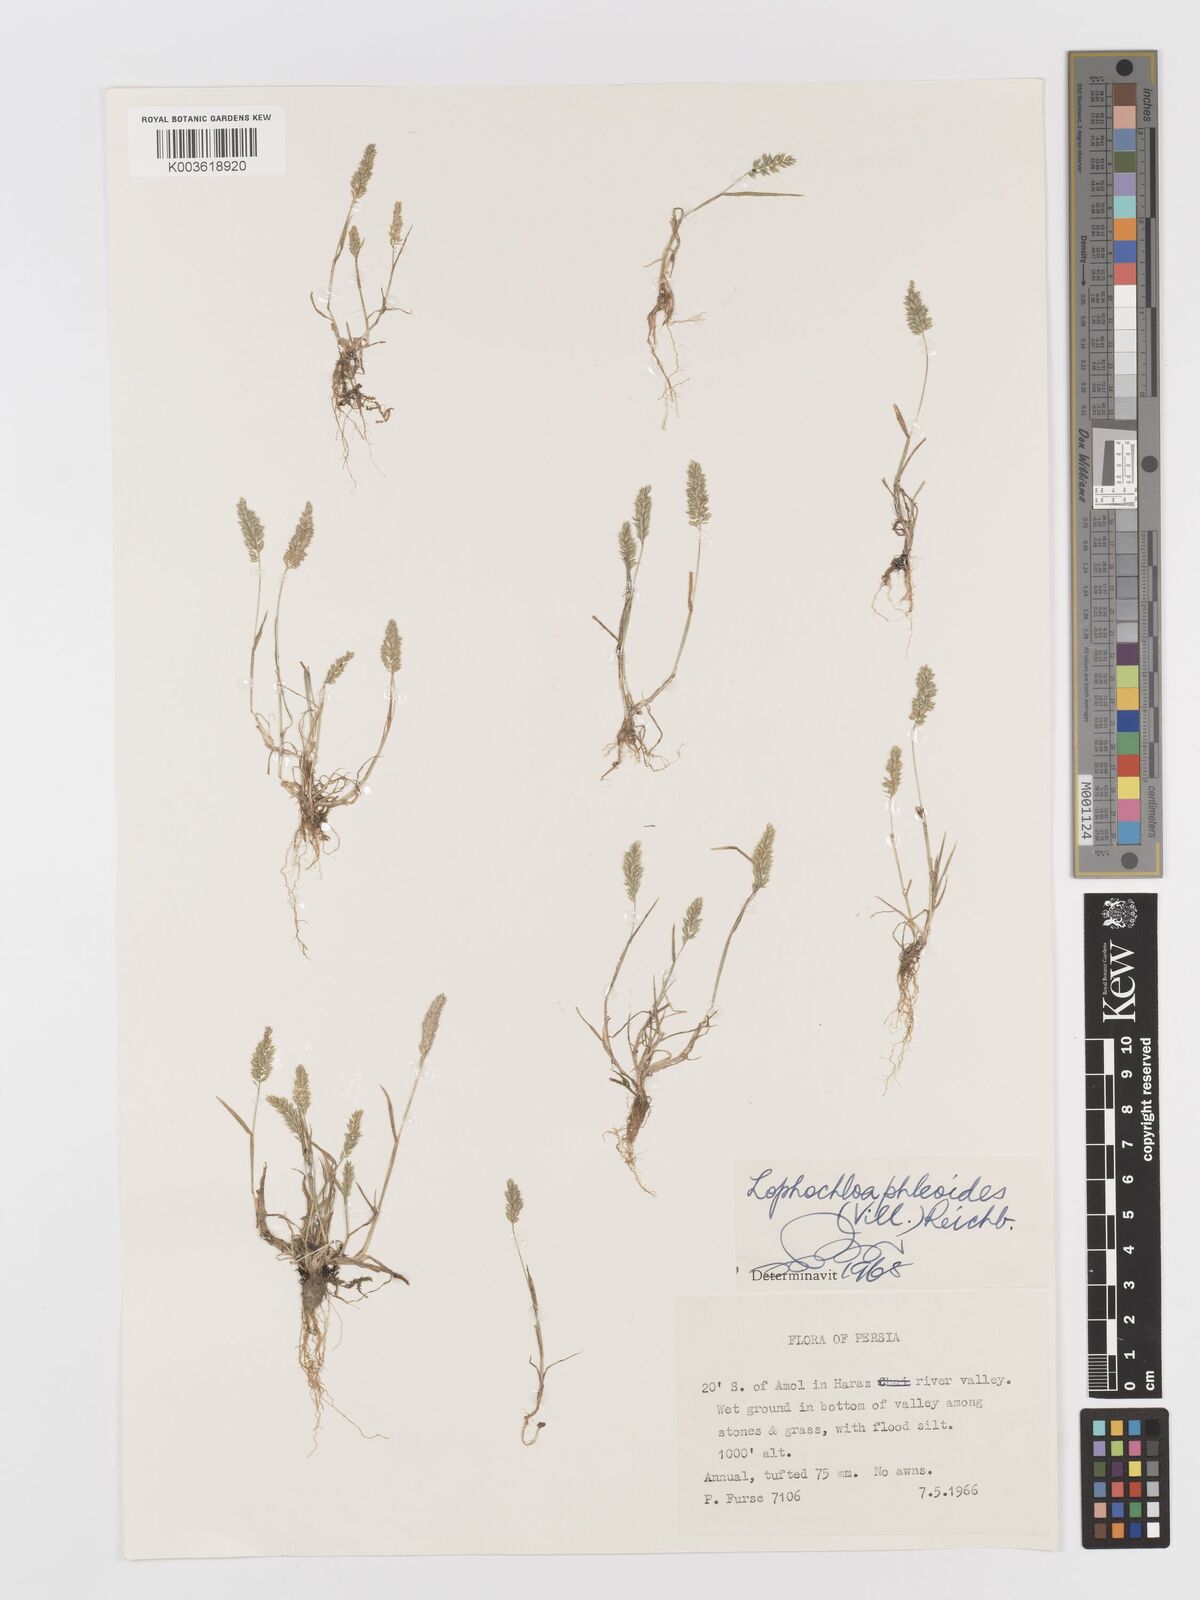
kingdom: Plantae
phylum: Tracheophyta
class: Liliopsida
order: Poales
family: Poaceae
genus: Rostraria
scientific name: Rostraria cristata
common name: Mediterranean hair-grass
